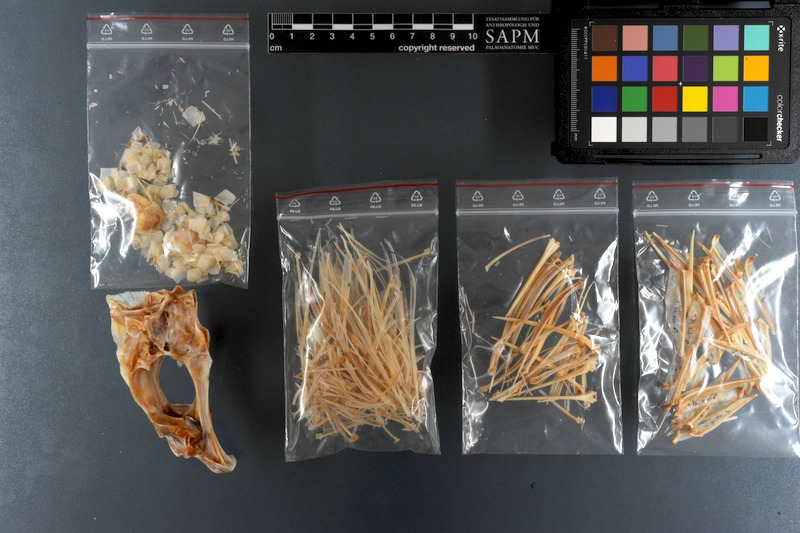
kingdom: Animalia
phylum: Chordata
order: Perciformes
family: Haemulidae
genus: Plectorhinchus
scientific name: Plectorhinchus schotaf
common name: Minstrel sweetlips
